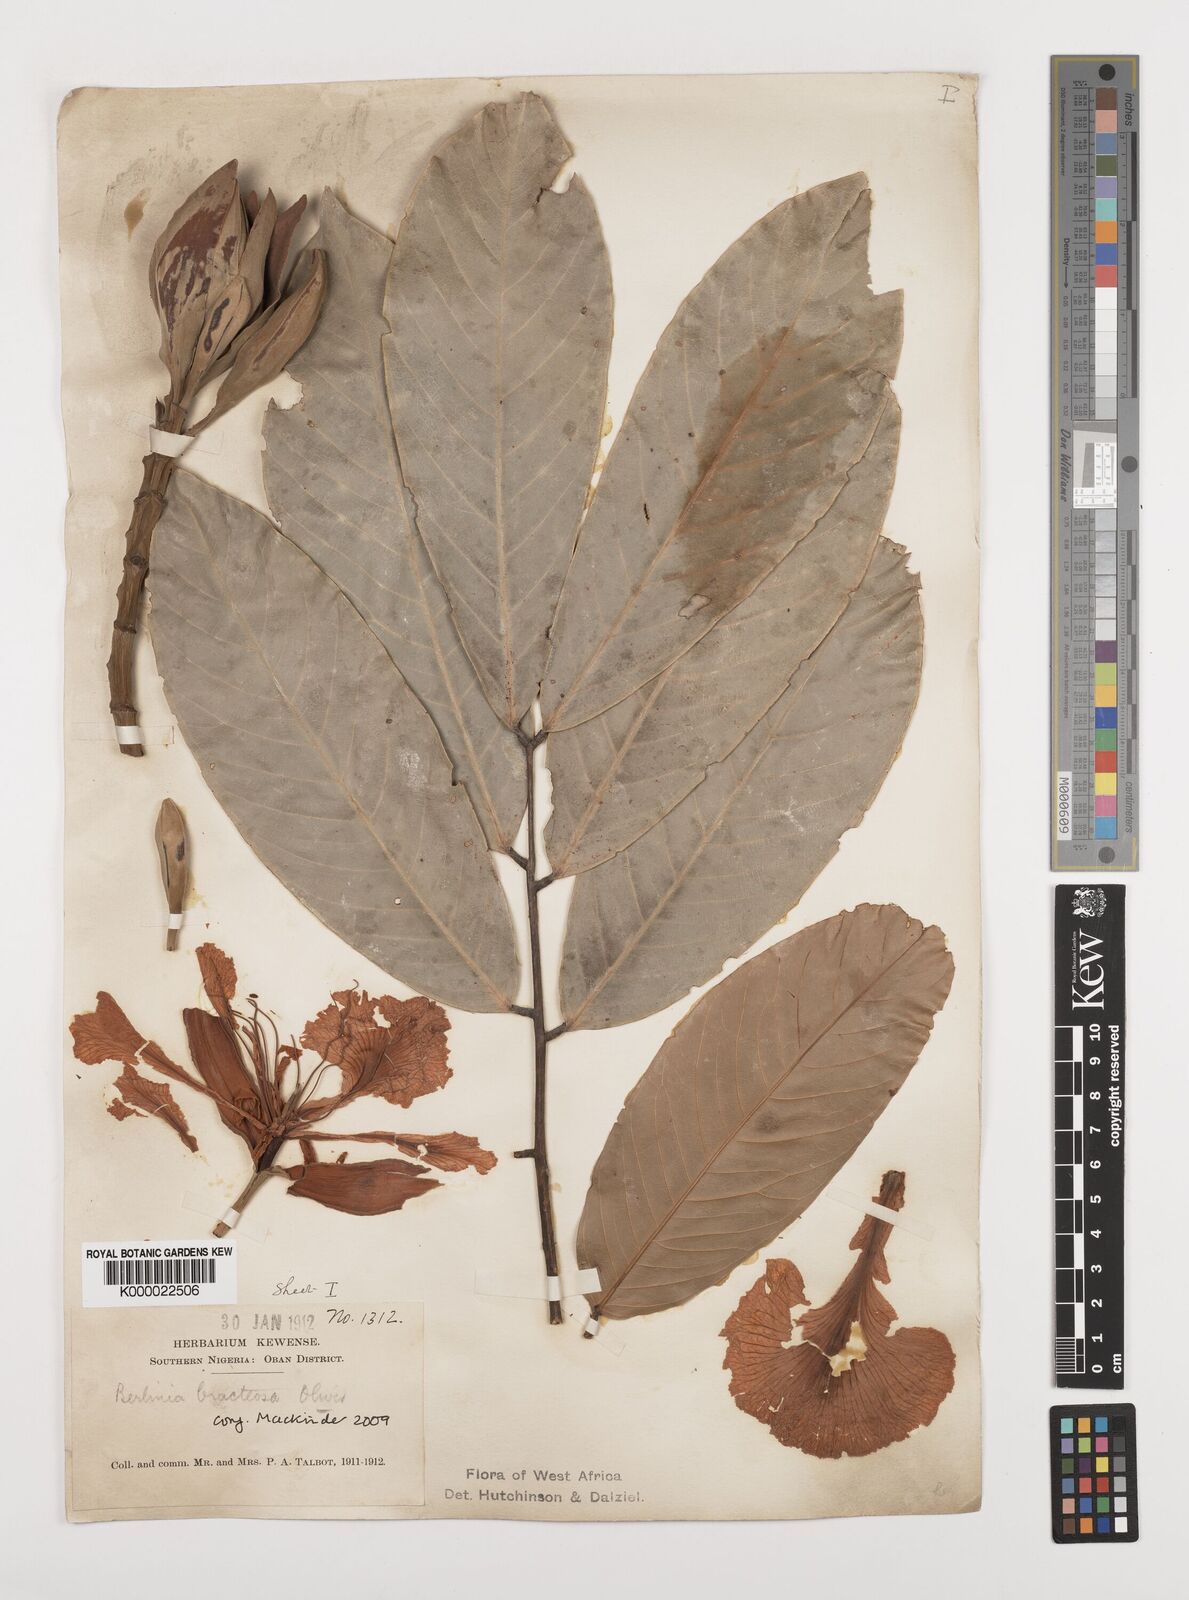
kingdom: Plantae
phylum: Tracheophyta
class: Magnoliopsida
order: Fabales
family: Fabaceae
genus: Berlinia
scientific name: Berlinia bracteosa
